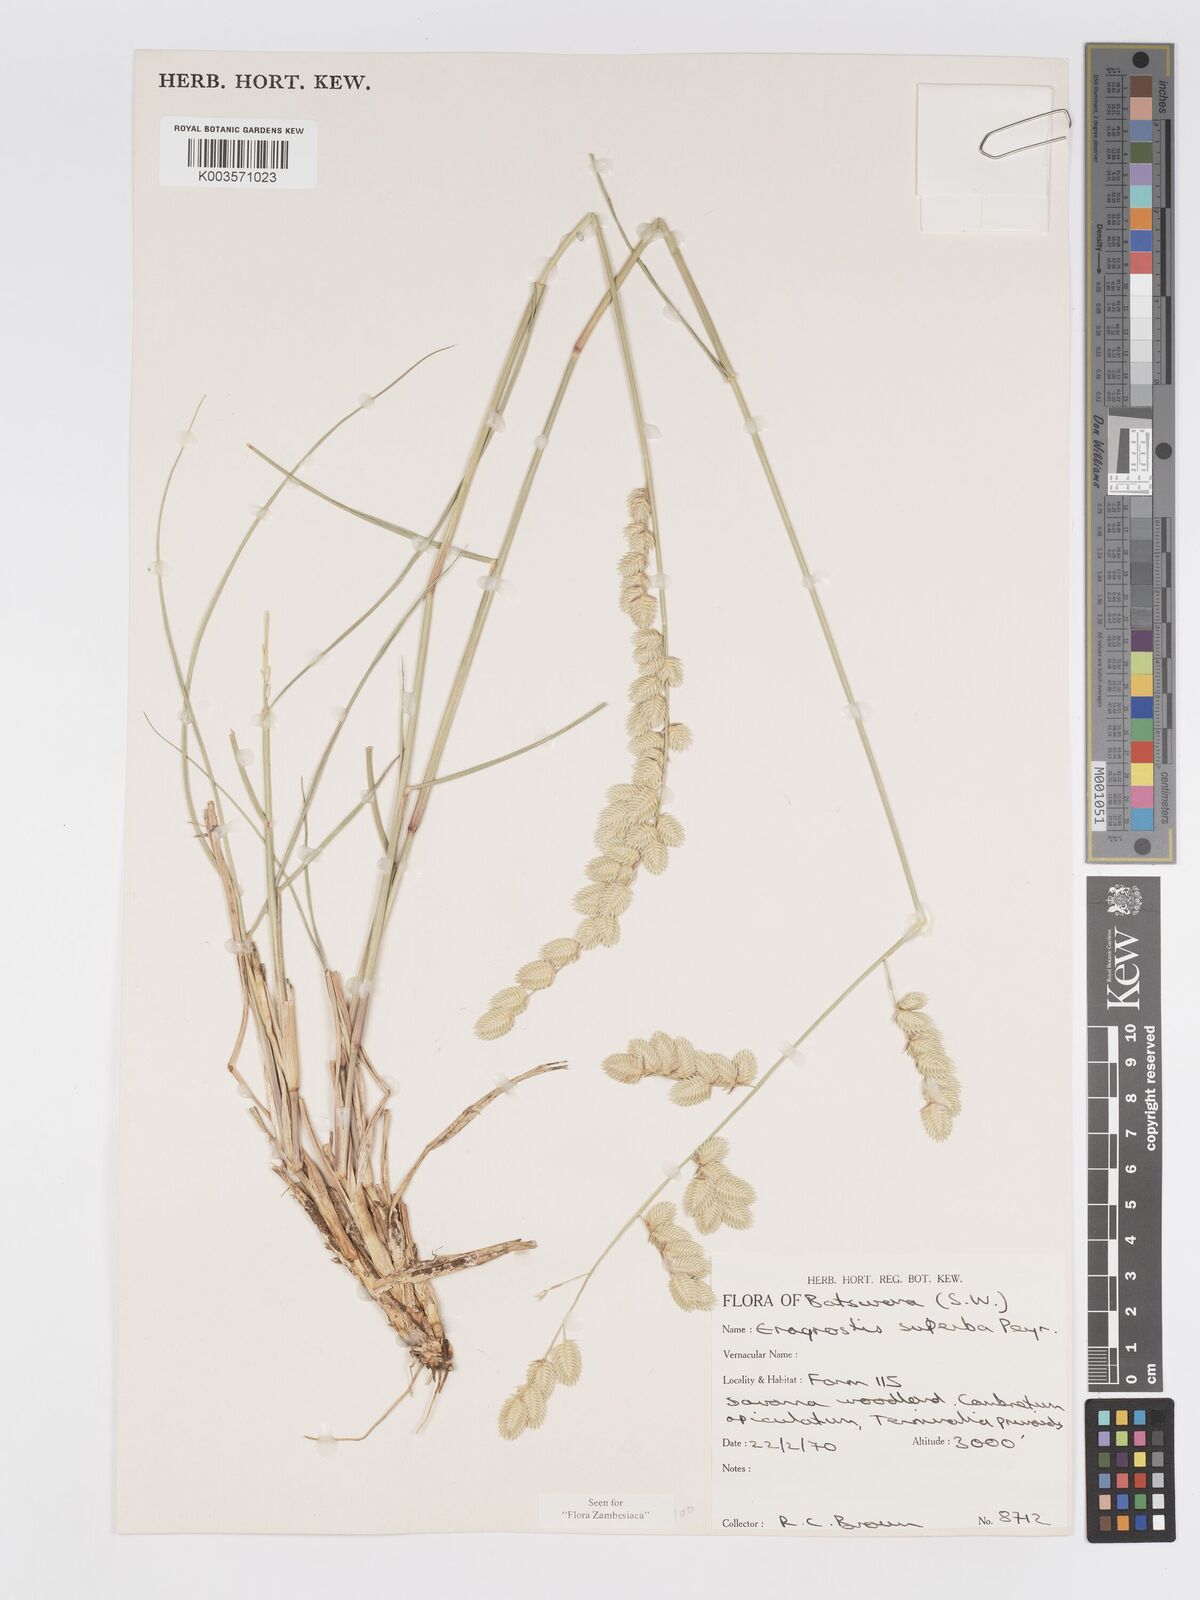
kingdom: Plantae
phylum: Tracheophyta
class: Liliopsida
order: Poales
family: Poaceae
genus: Eragrostis
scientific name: Eragrostis superba
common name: Wilman lovegrass
